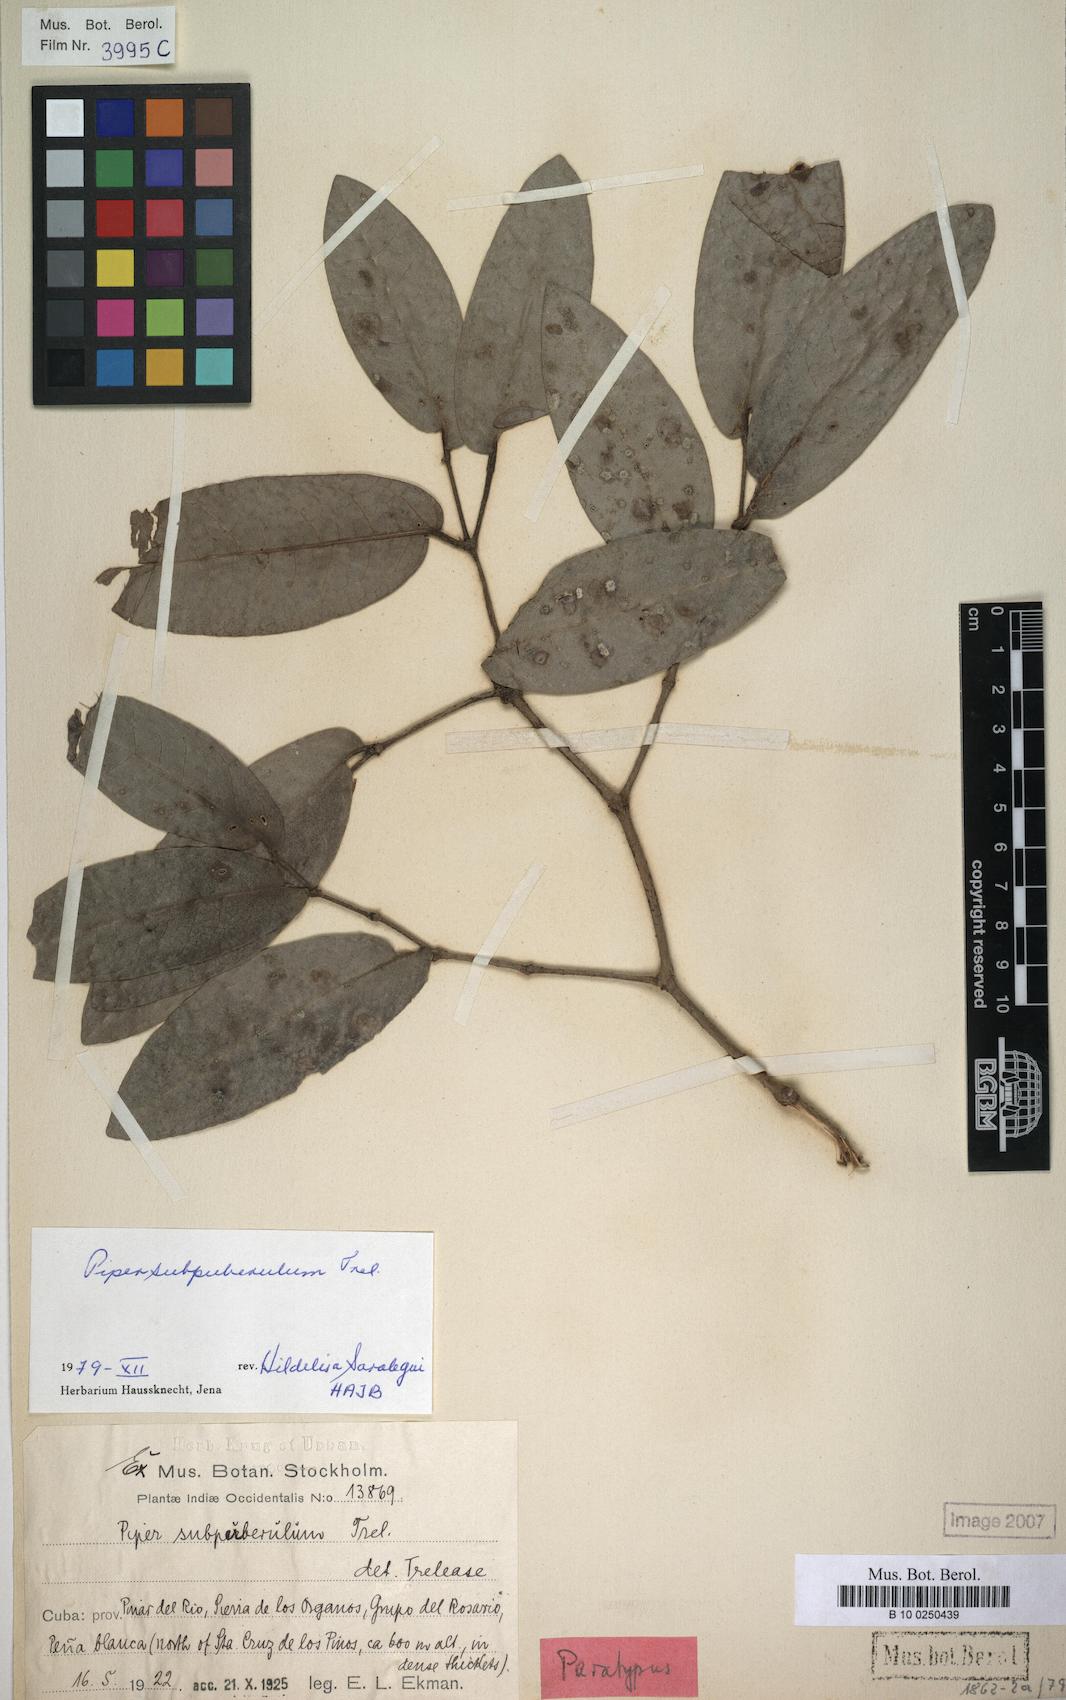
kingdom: Plantae
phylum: Tracheophyta
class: Magnoliopsida
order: Piperales
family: Piperaceae
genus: Piper
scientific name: Piper arboreum
